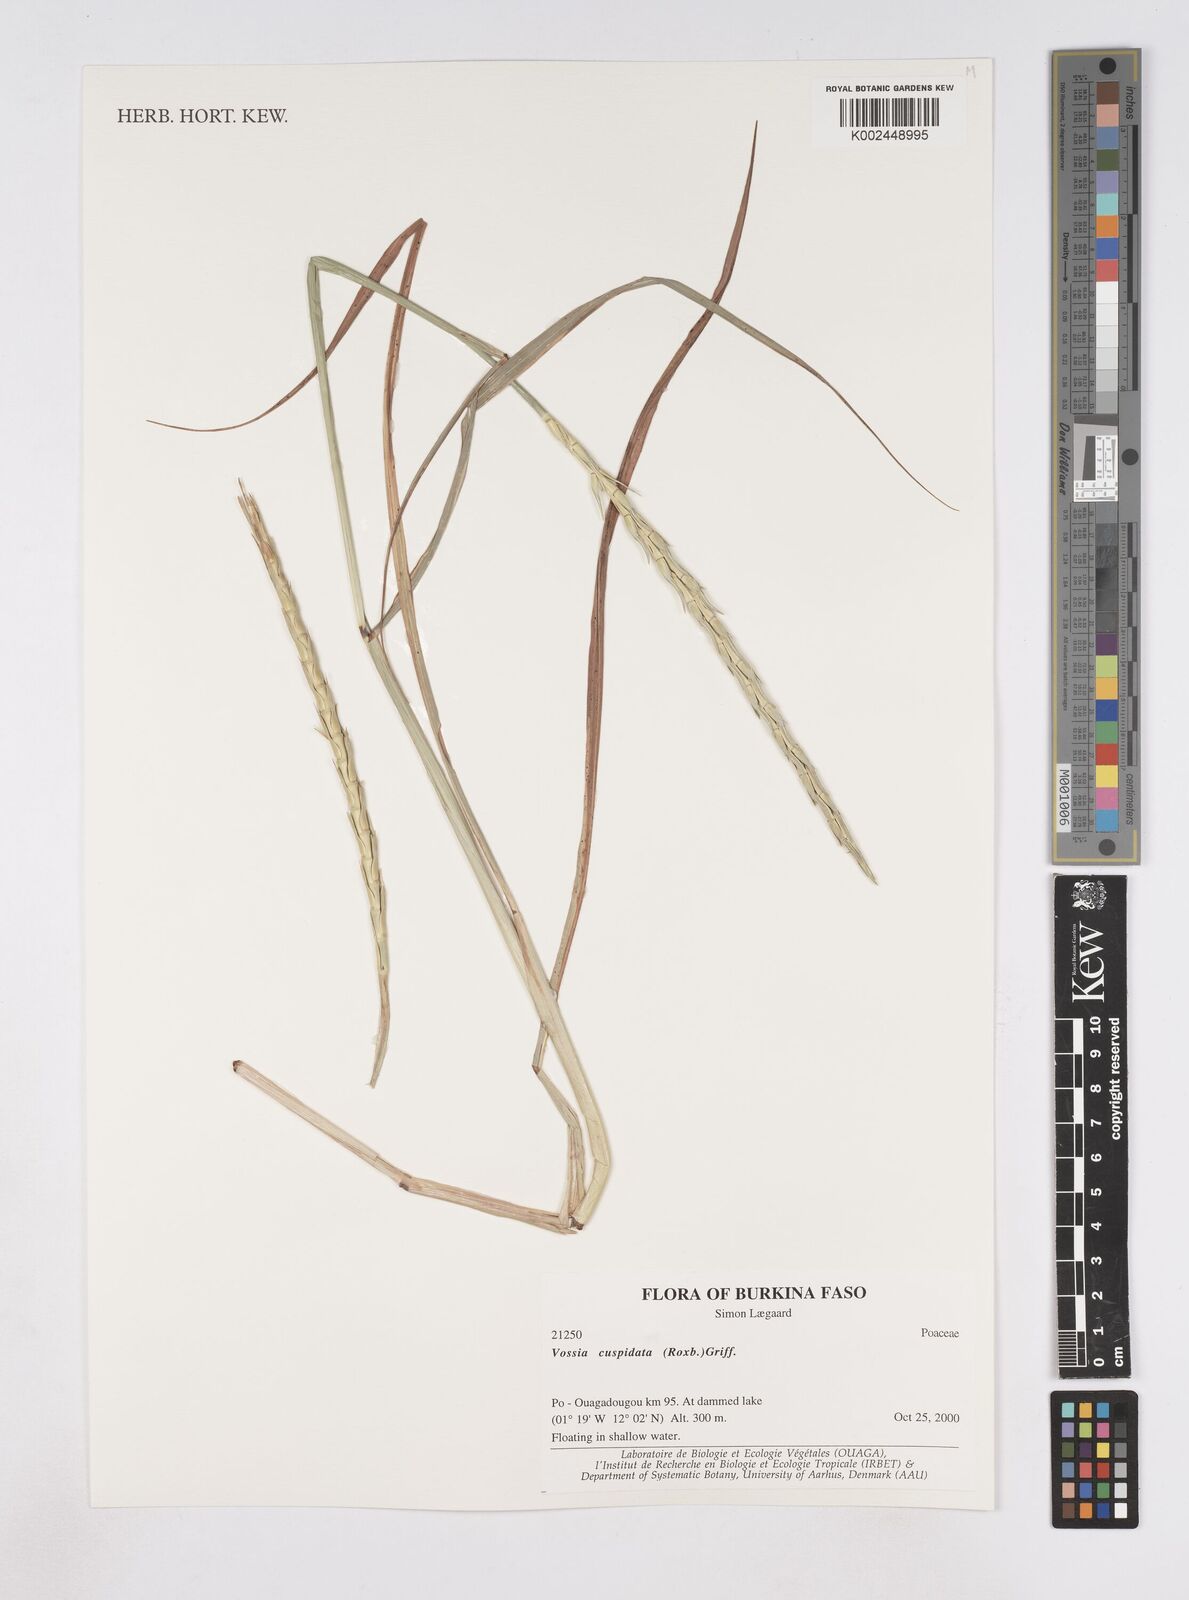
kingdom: Plantae
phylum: Tracheophyta
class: Liliopsida
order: Poales
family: Poaceae
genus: Vossia
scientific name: Vossia cuspidata
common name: Hippo grass
